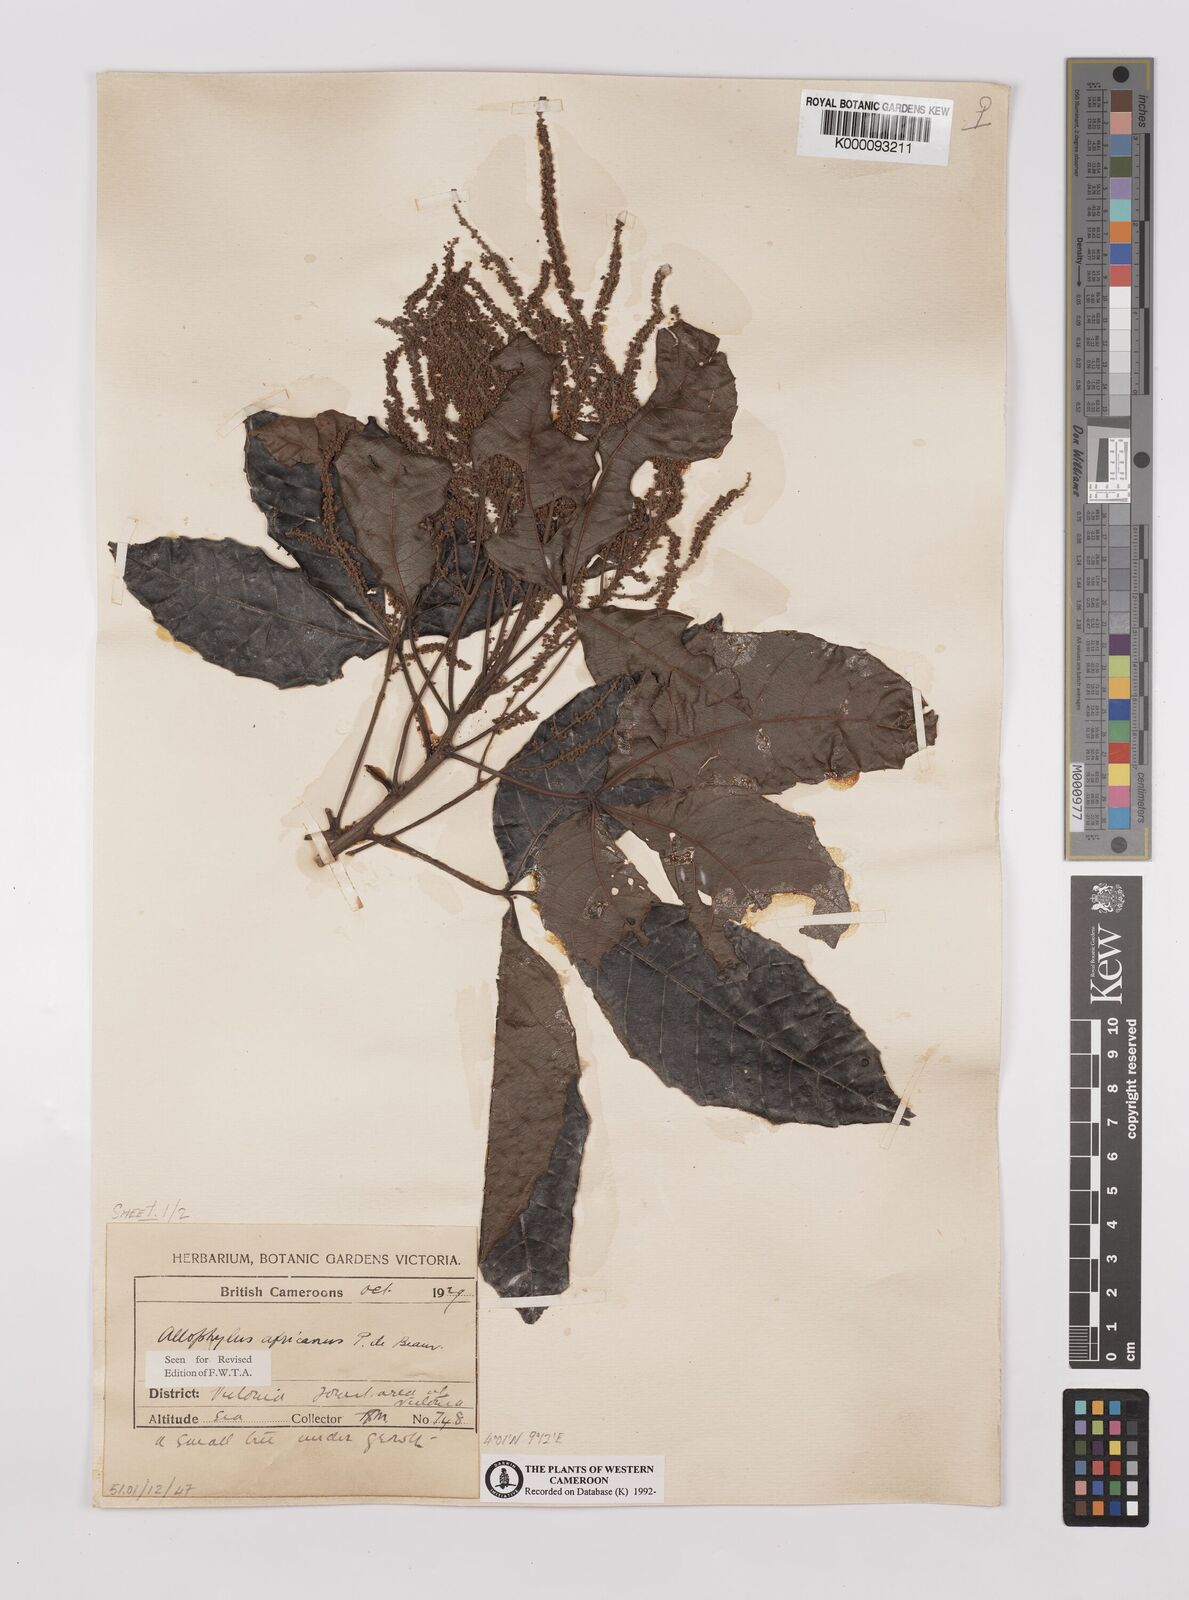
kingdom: Plantae
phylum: Tracheophyta
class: Magnoliopsida
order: Sapindales
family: Sapindaceae
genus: Allophylus
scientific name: Allophylus africanus
